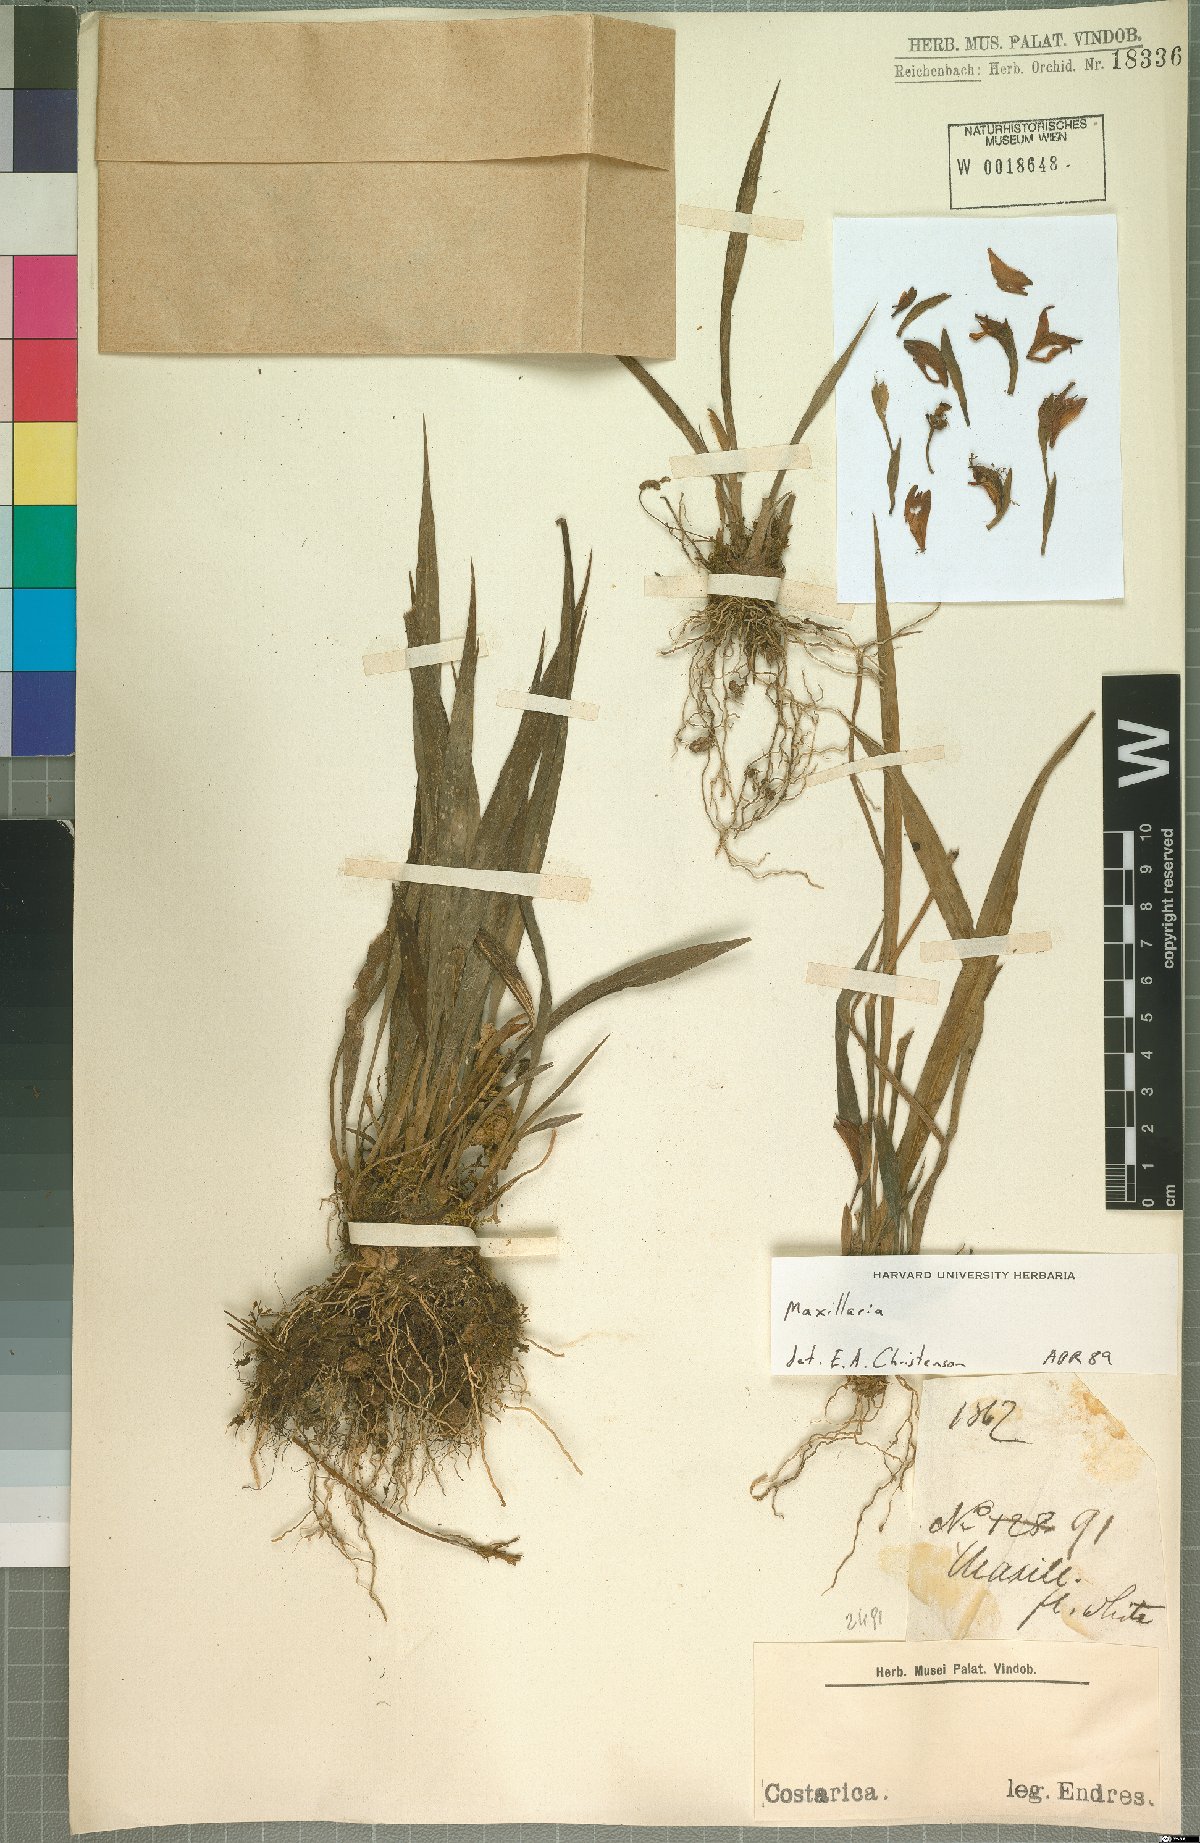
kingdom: Plantae
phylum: Tracheophyta
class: Liliopsida
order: Asparagales
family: Orchidaceae
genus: Maxillaria
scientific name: Maxillaria
